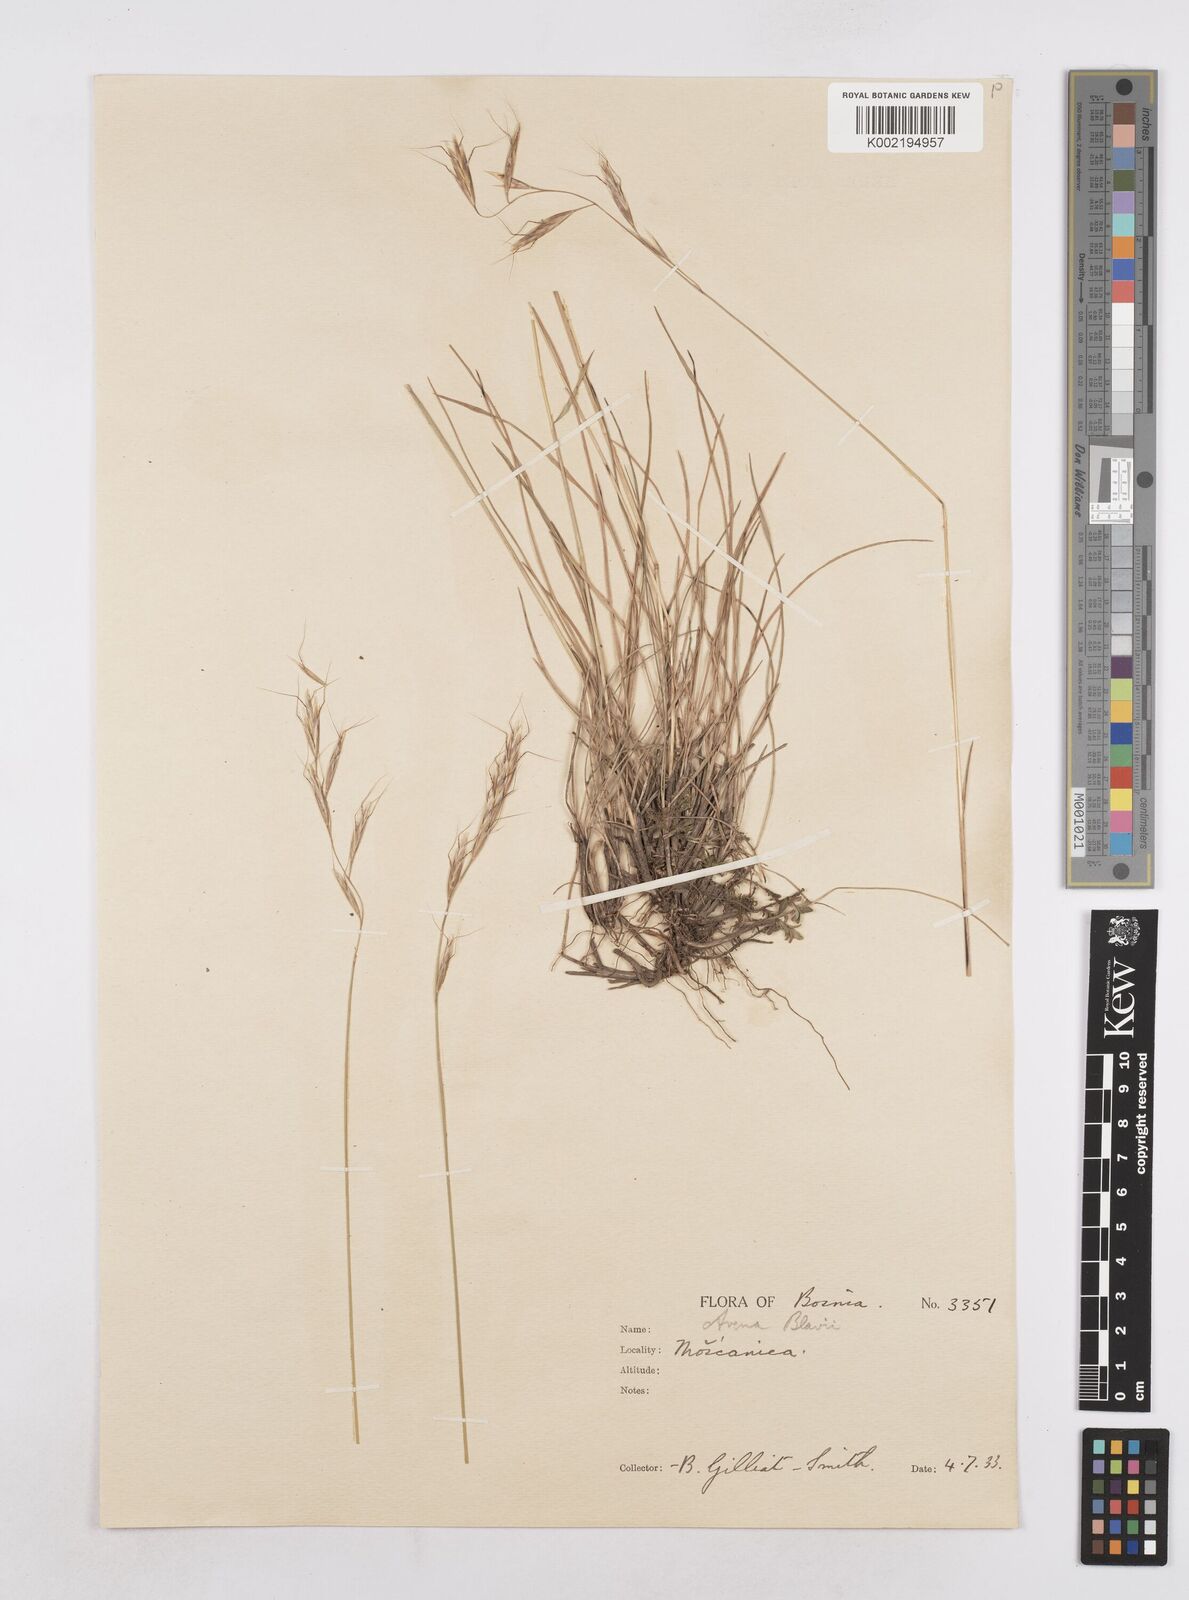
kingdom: Plantae
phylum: Tracheophyta
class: Liliopsida
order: Poales
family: Poaceae
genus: Helictochloa
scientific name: Helictochloa blaui
